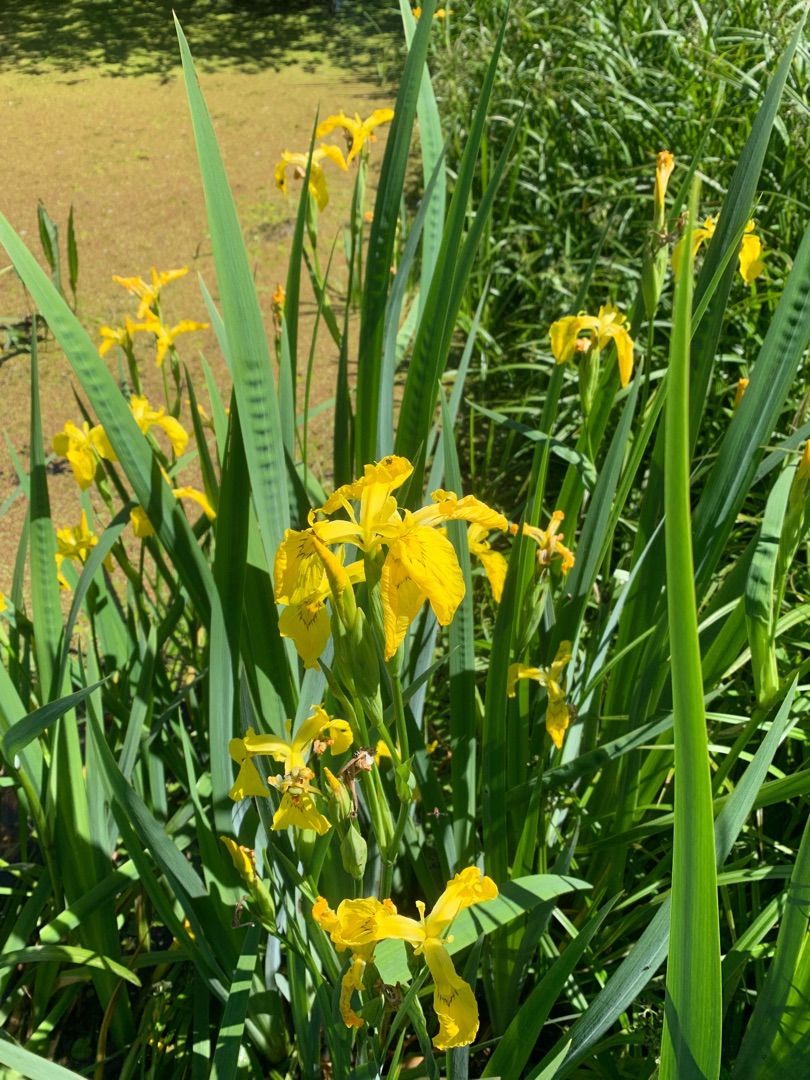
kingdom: Plantae
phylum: Tracheophyta
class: Liliopsida
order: Asparagales
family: Iridaceae
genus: Iris
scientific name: Iris pseudacorus
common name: Gul iris
